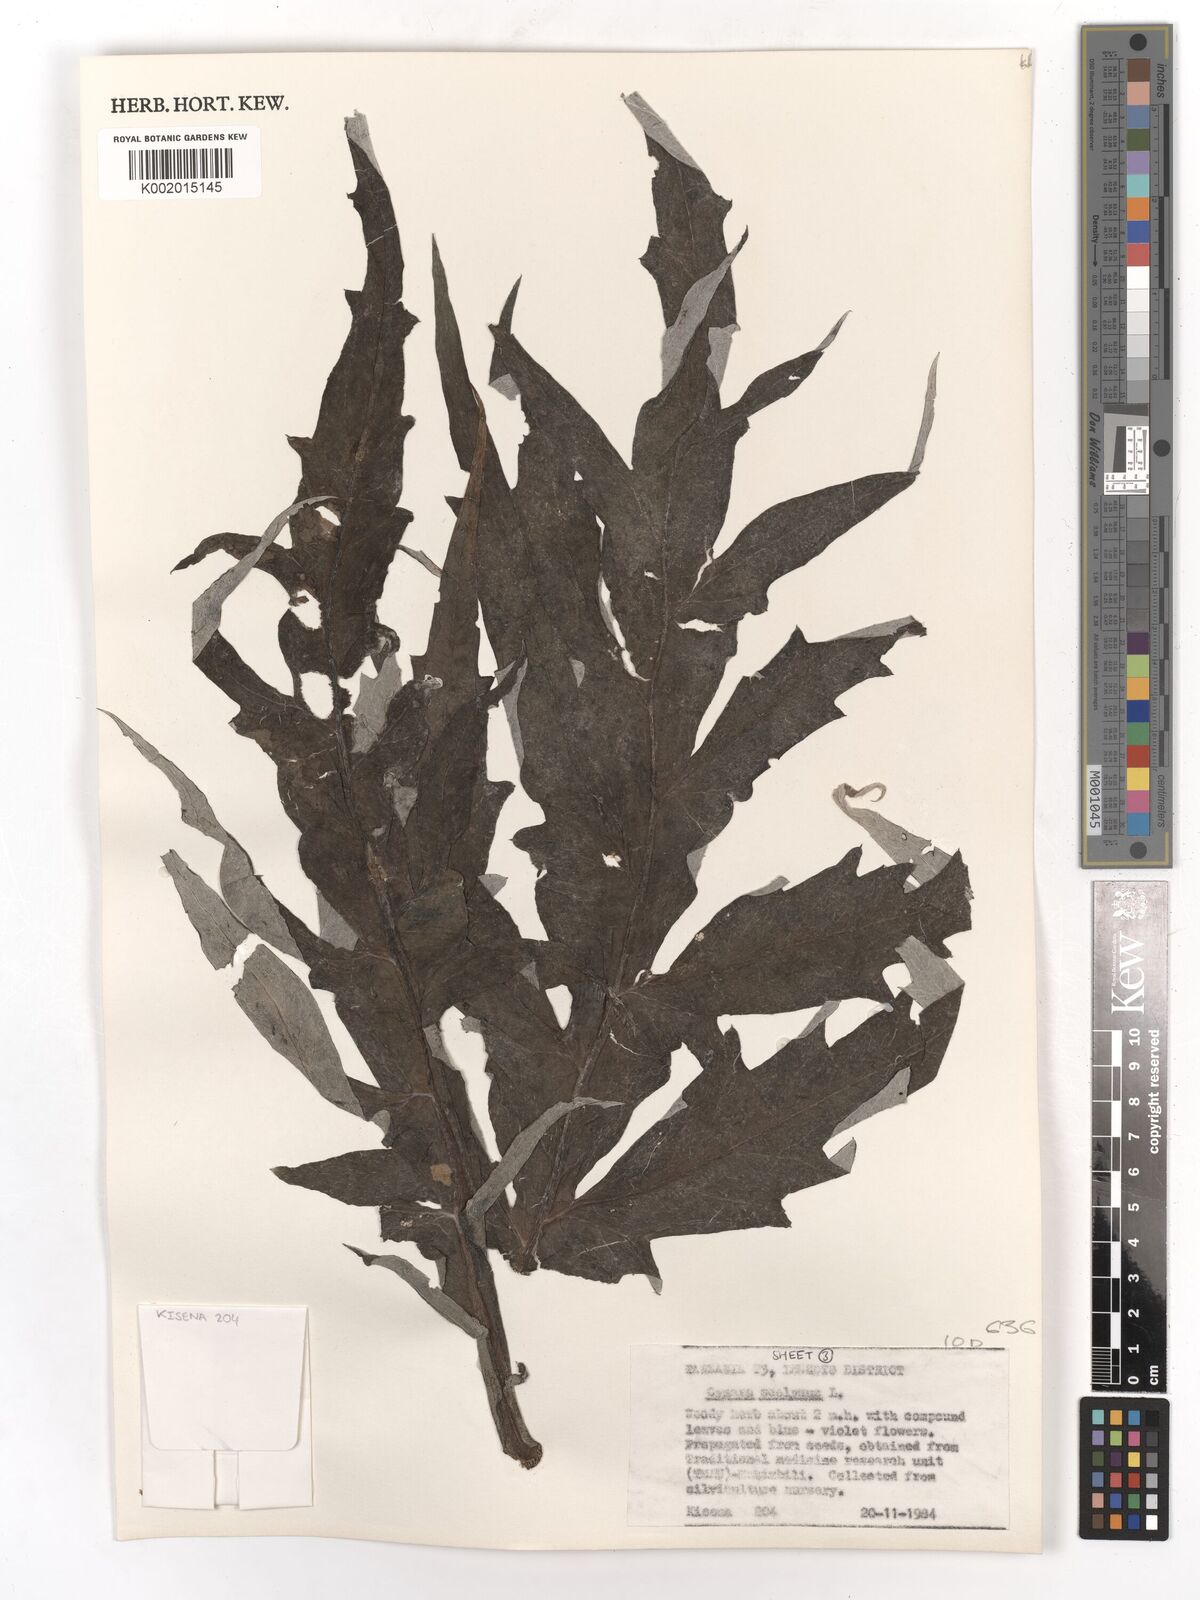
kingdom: Plantae
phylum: Tracheophyta
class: Magnoliopsida
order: Asterales
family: Asteraceae
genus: Cynara
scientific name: Cynara cardunculus
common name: Globe artichoke
